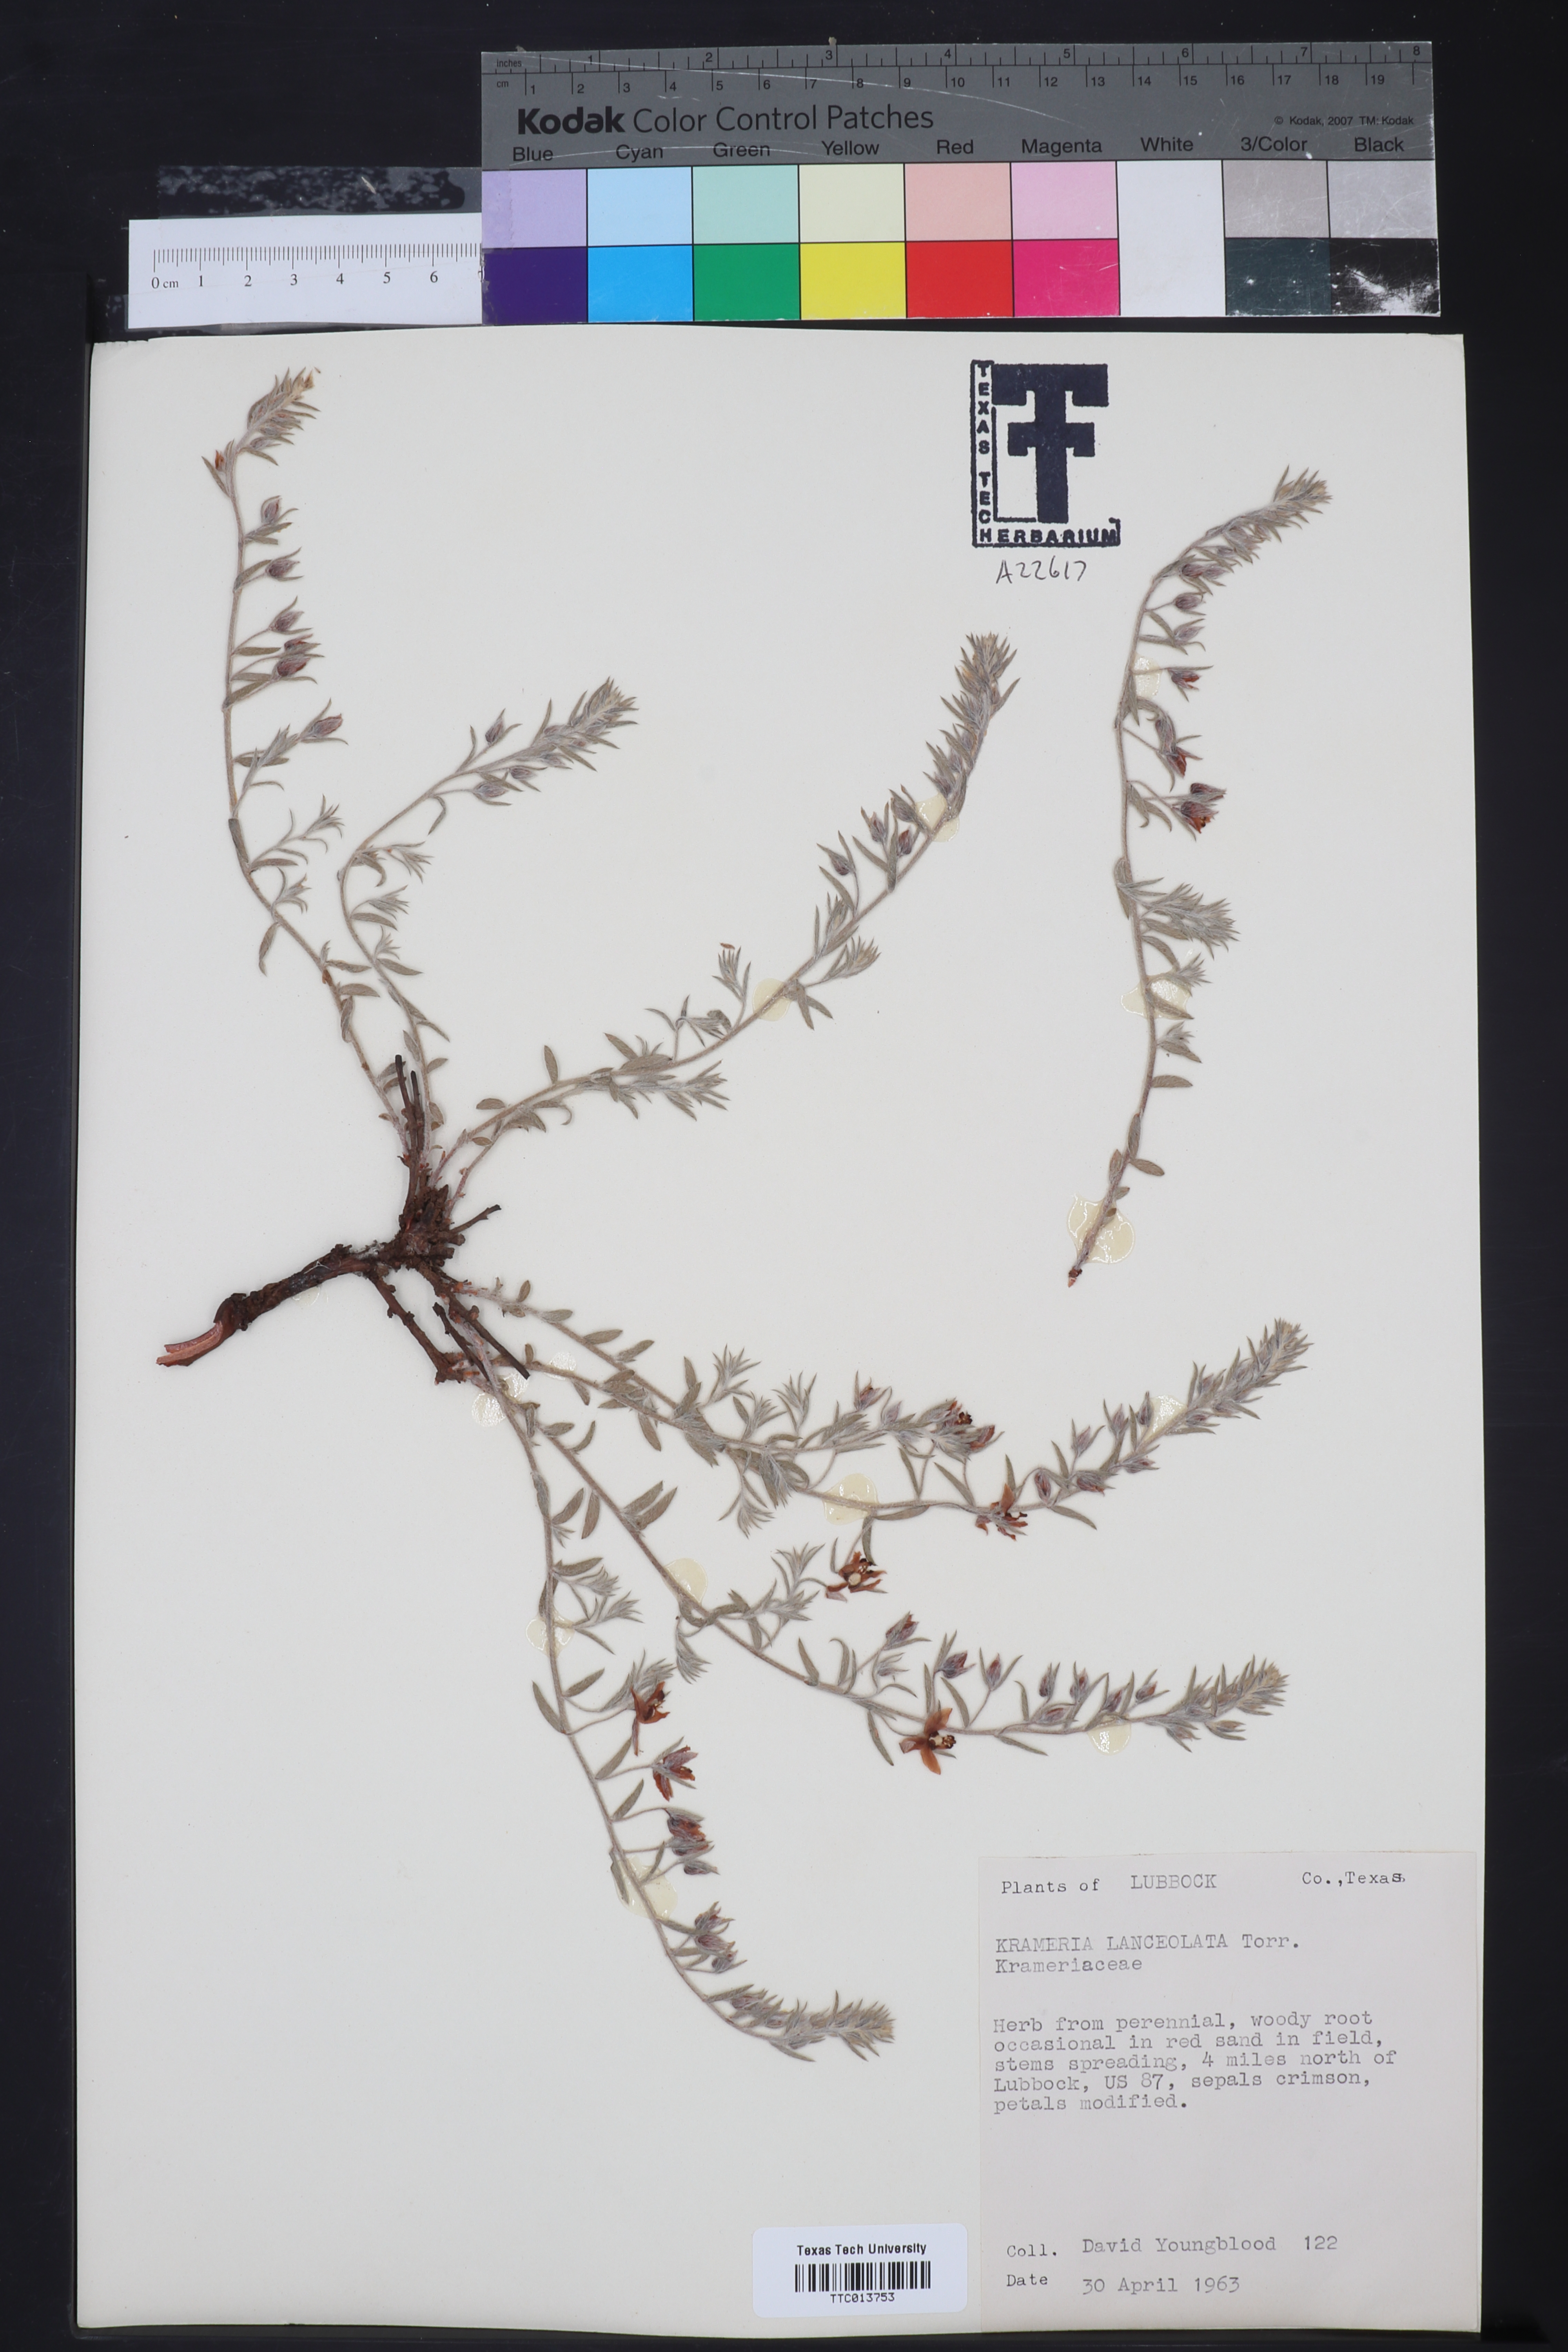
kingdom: Plantae
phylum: Tracheophyta
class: Magnoliopsida
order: Zygophyllales
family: Krameriaceae
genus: Krameria
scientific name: Krameria lanceolata
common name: Ratany
